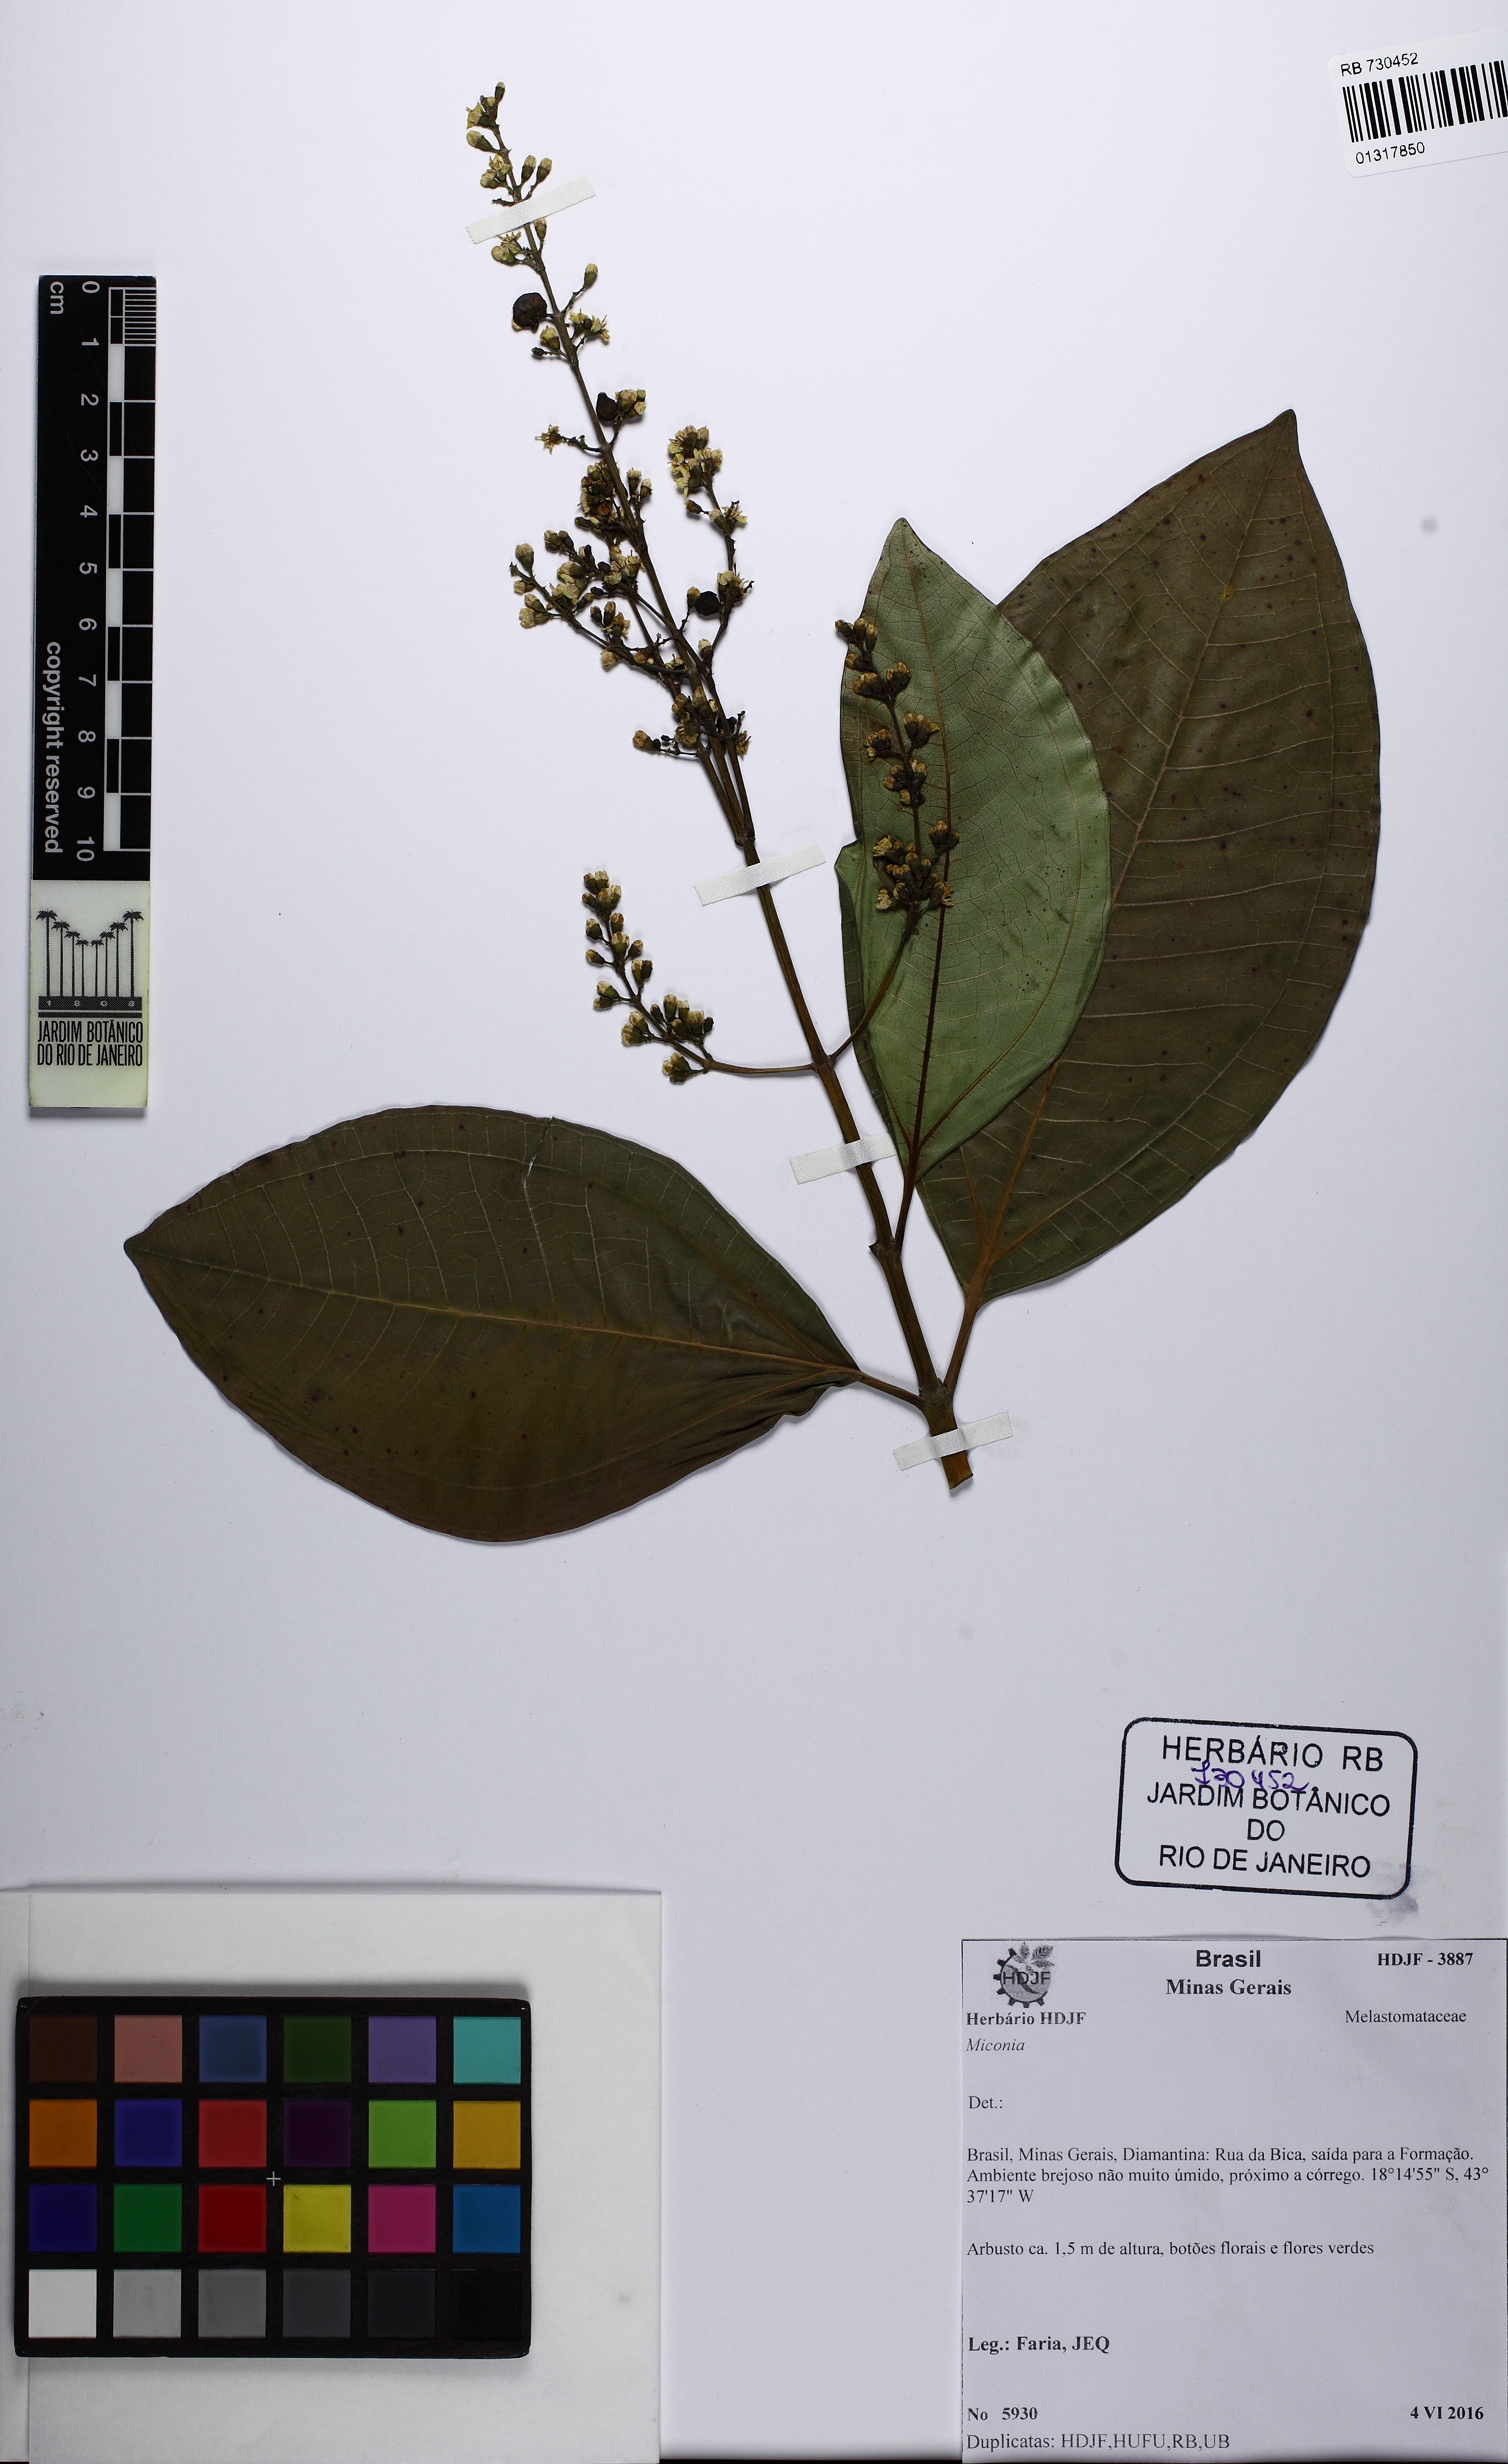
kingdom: Plantae
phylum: Tracheophyta
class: Magnoliopsida
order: Myrtales
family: Melastomataceae
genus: Miconia
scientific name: Miconia
